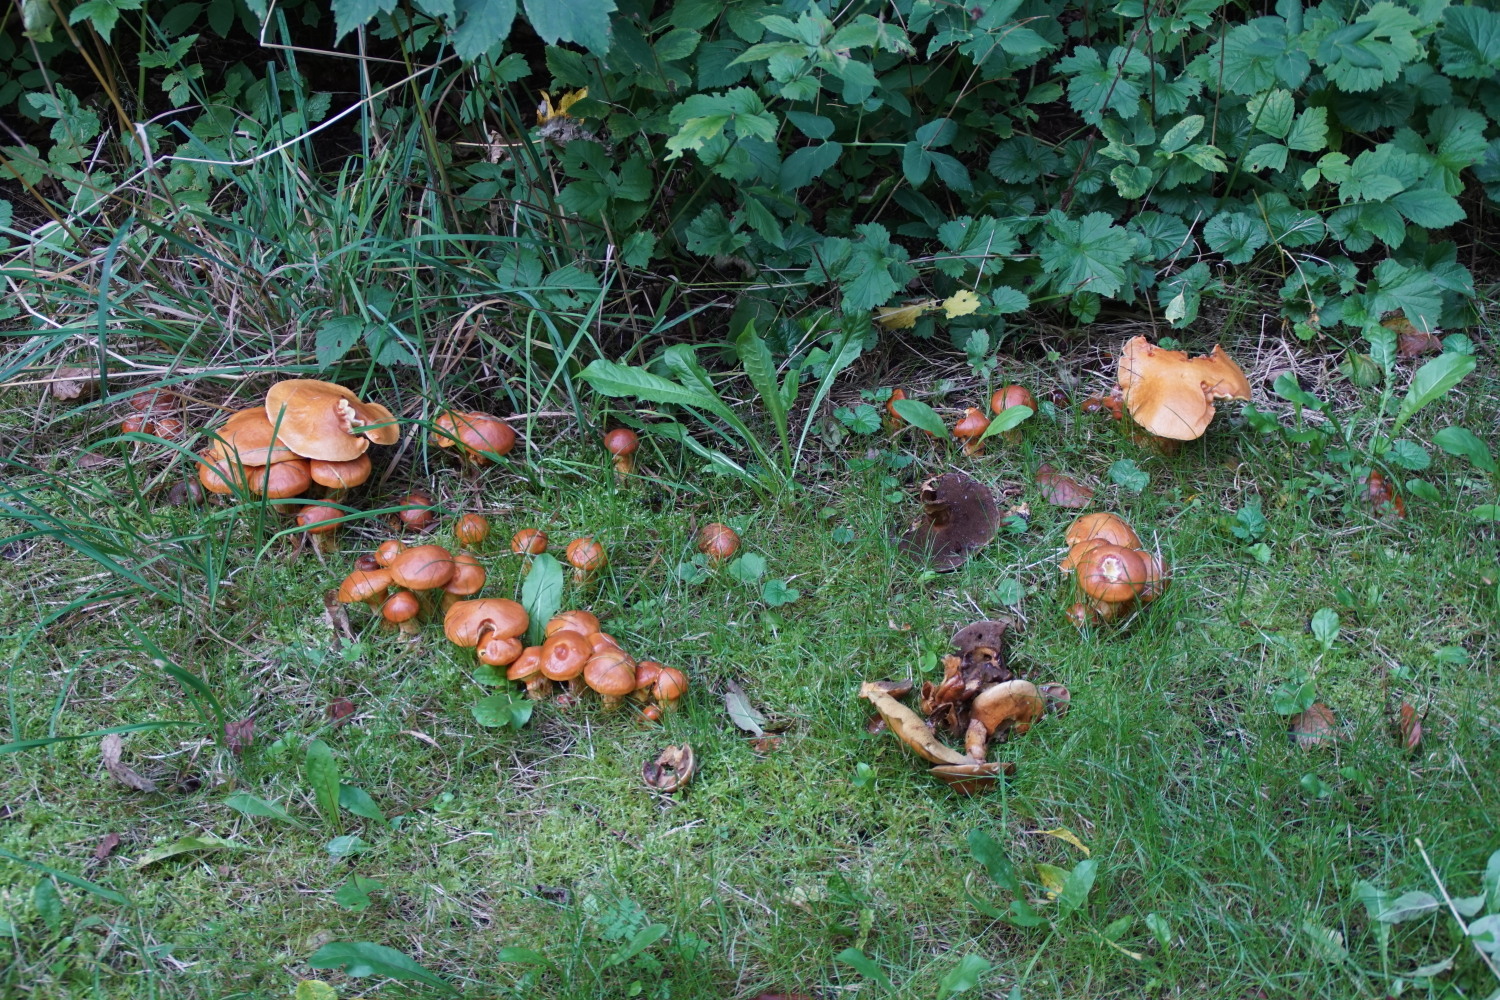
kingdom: Fungi
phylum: Basidiomycota
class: Agaricomycetes
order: Boletales
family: Suillaceae
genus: Suillus
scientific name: Suillus grevillei
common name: lærke-slimrørhat
